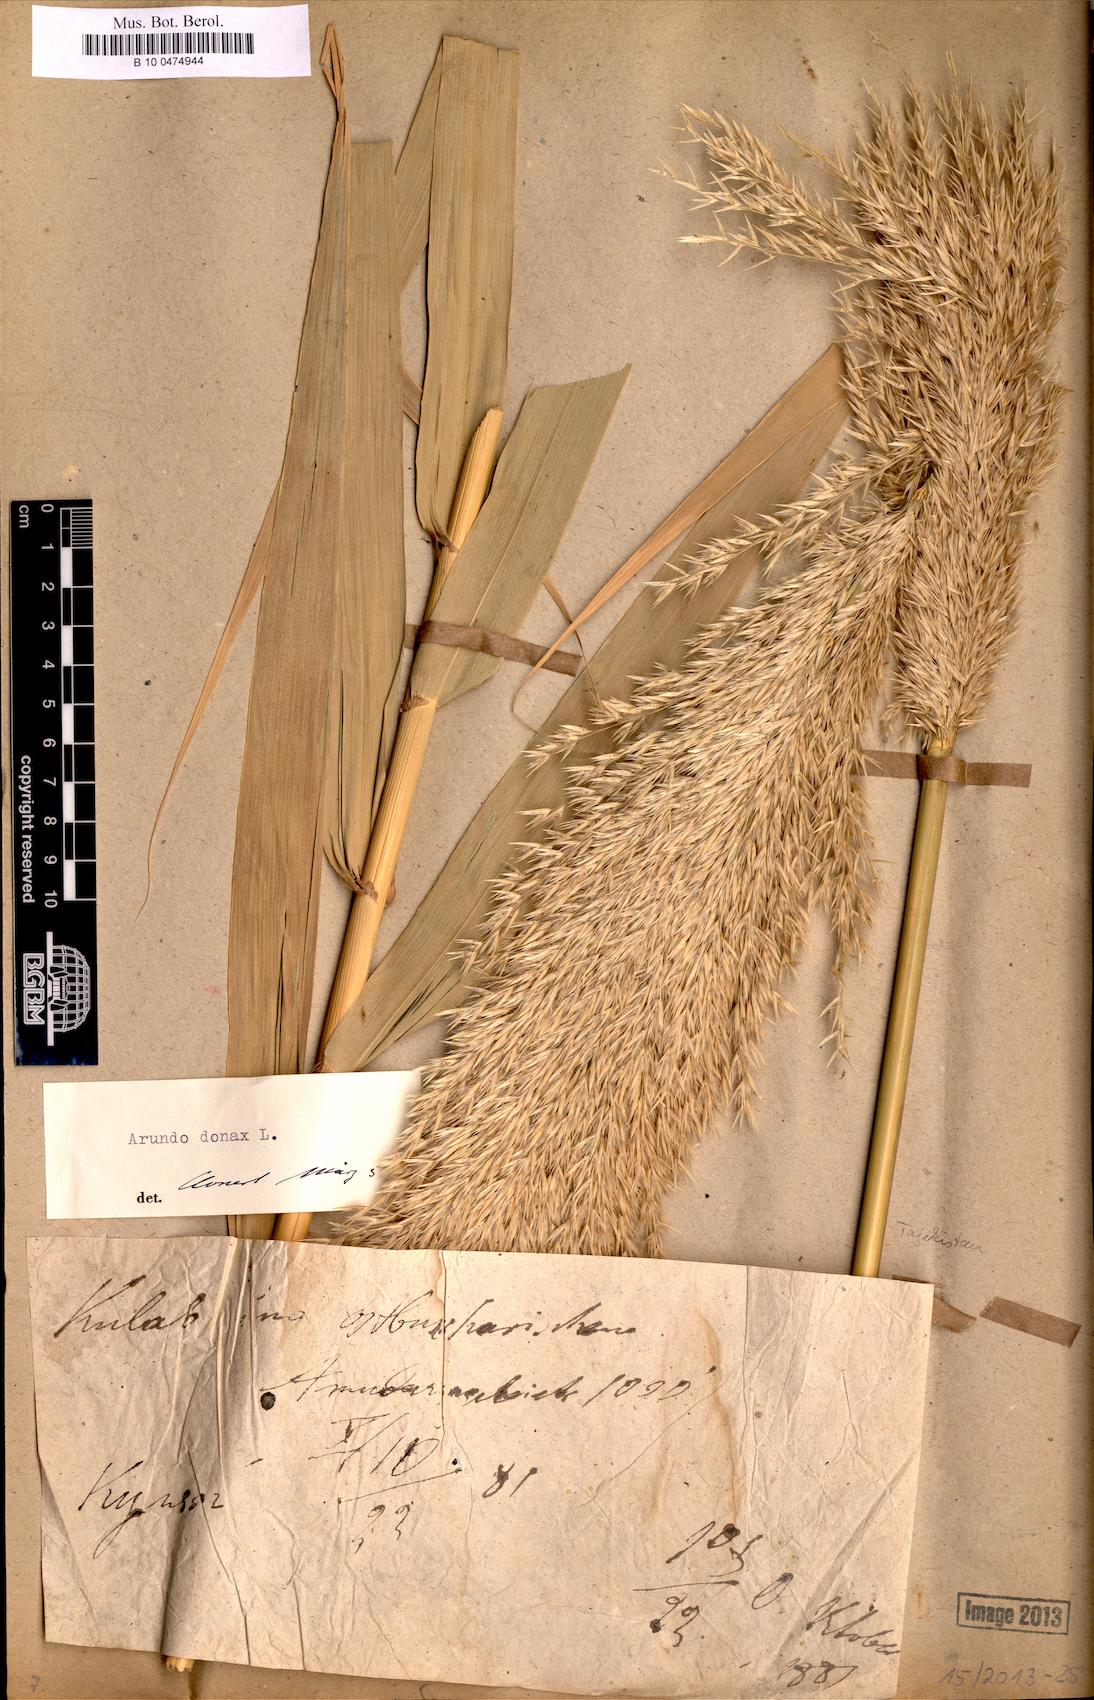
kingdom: Plantae
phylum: Tracheophyta
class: Liliopsida
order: Poales
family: Poaceae
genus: Arundo
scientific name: Arundo donax
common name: Giant reed
